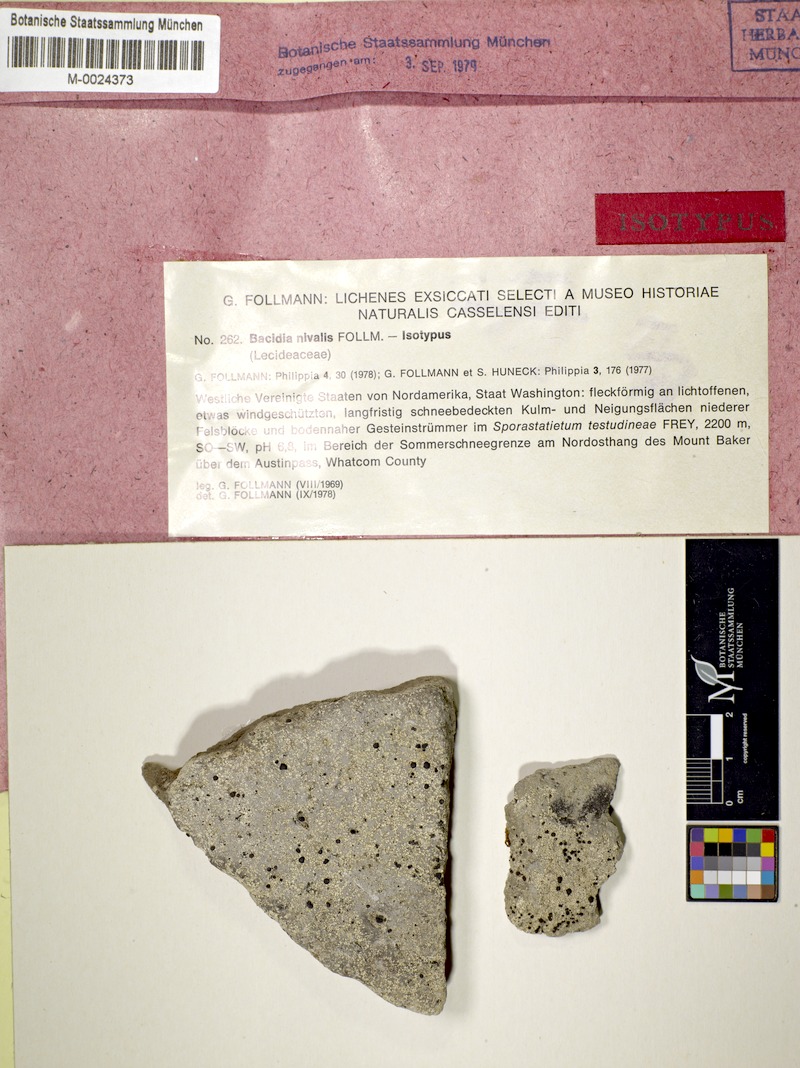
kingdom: Fungi
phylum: Ascomycota
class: Lecanoromycetes
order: Lecanorales
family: Stereocaulaceae
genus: Stereocaulon
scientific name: Stereocaulon nivale
